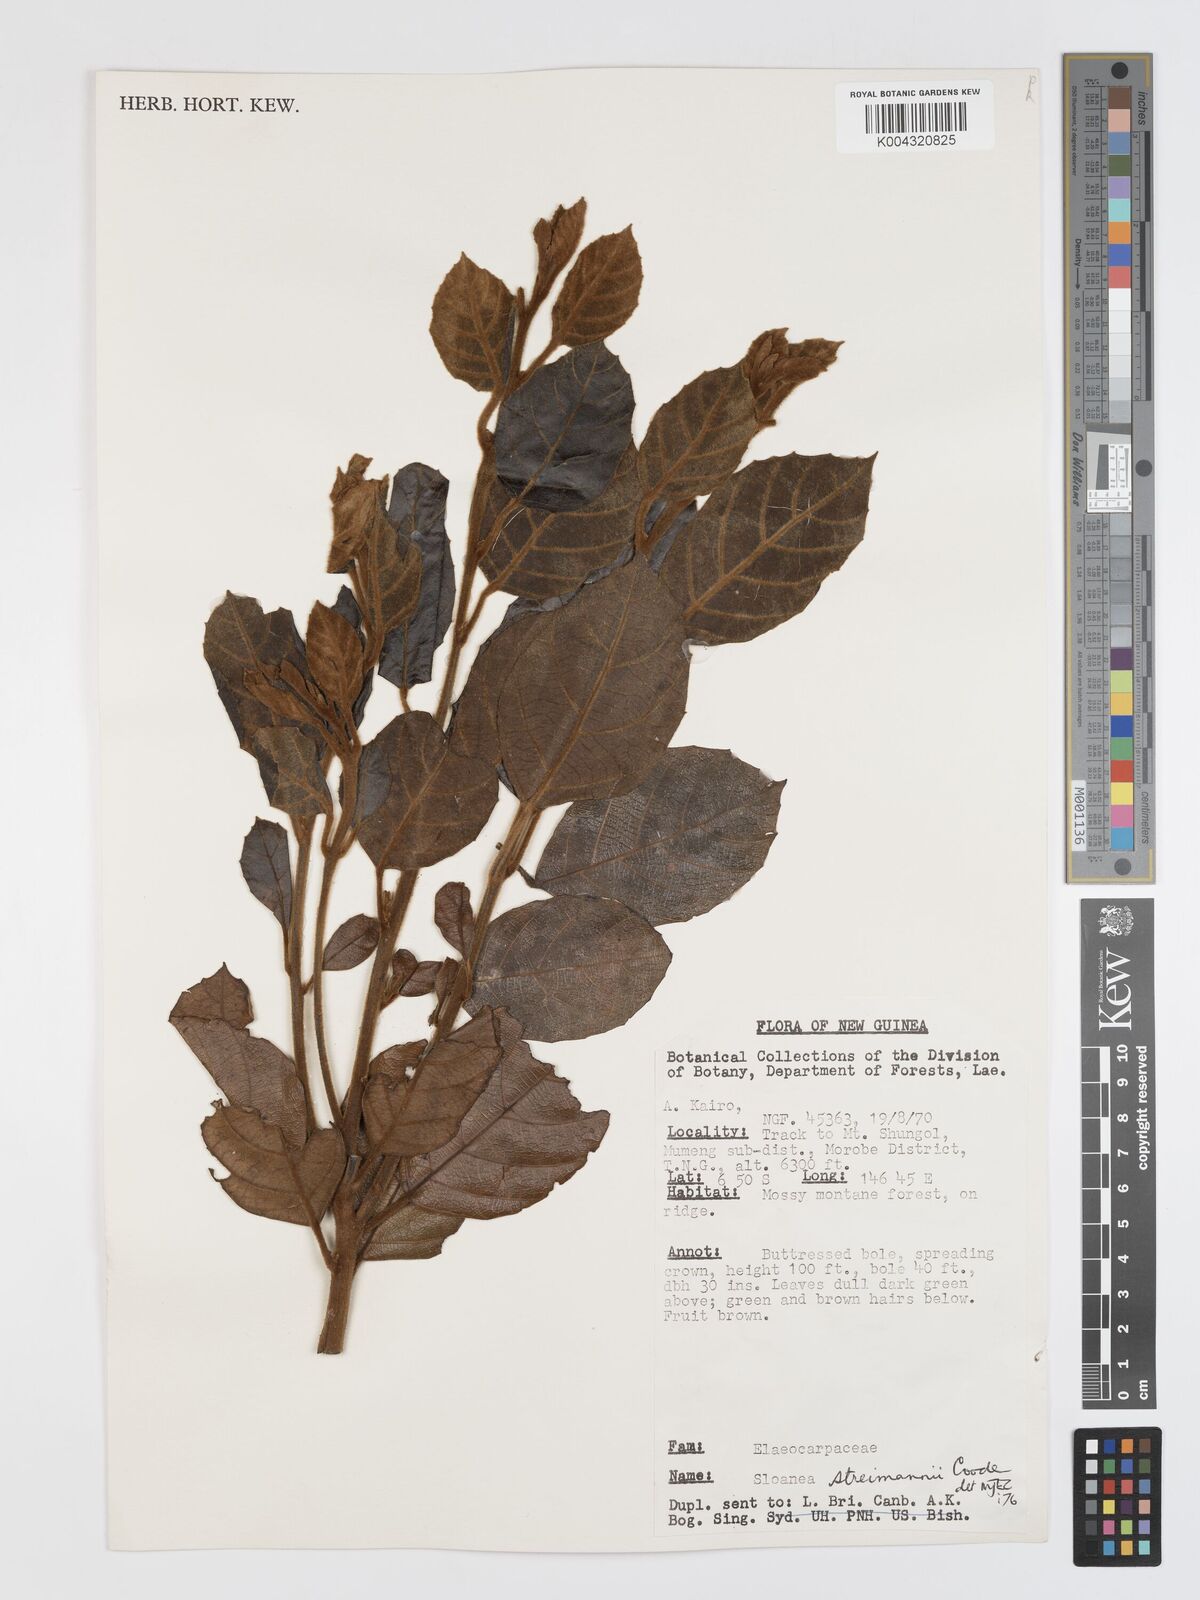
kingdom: Plantae
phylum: Tracheophyta
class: Magnoliopsida
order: Oxalidales
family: Elaeocarpaceae
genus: Sloanea
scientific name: Sloanea streimannii
